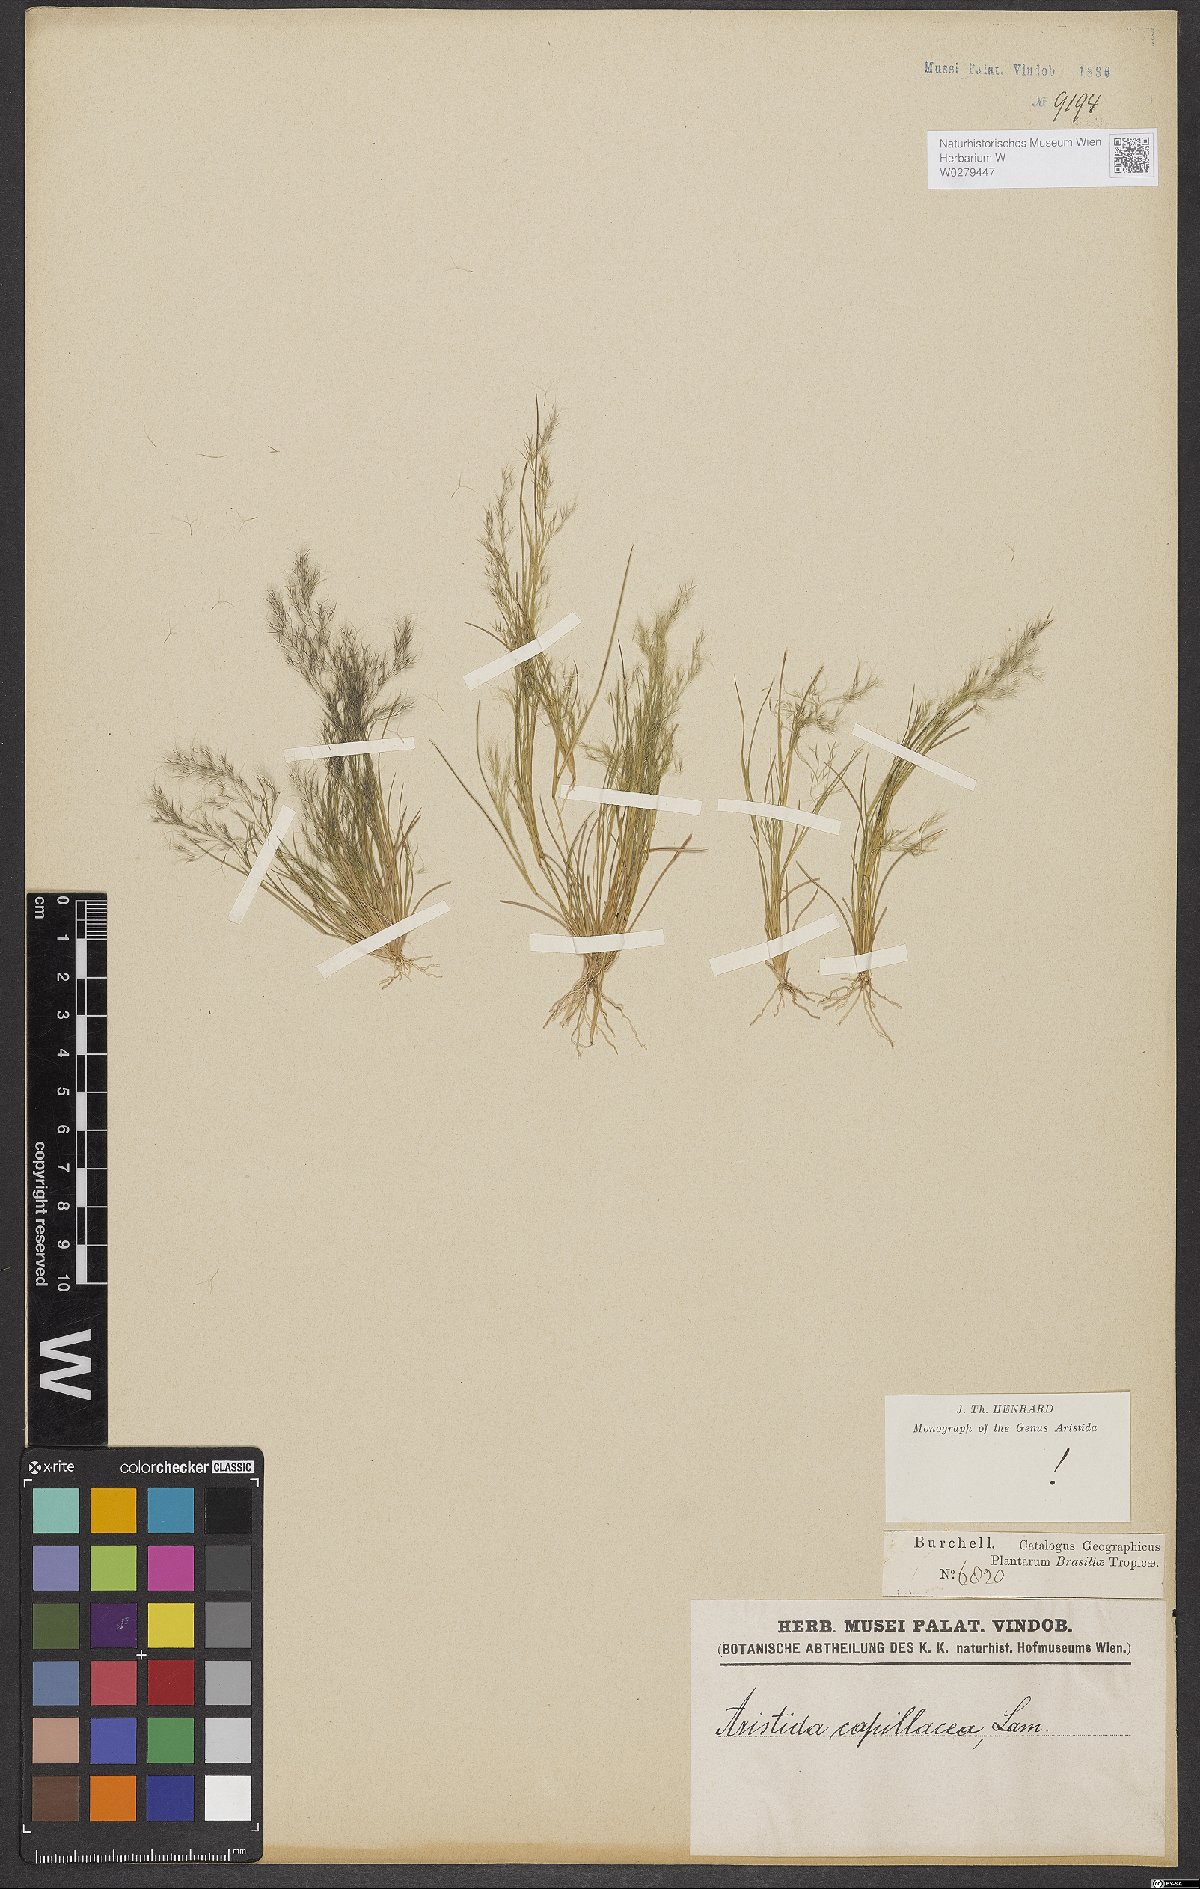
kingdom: Plantae
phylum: Tracheophyta
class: Liliopsida
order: Poales
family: Poaceae
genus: Aristida
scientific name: Aristida capillacea
